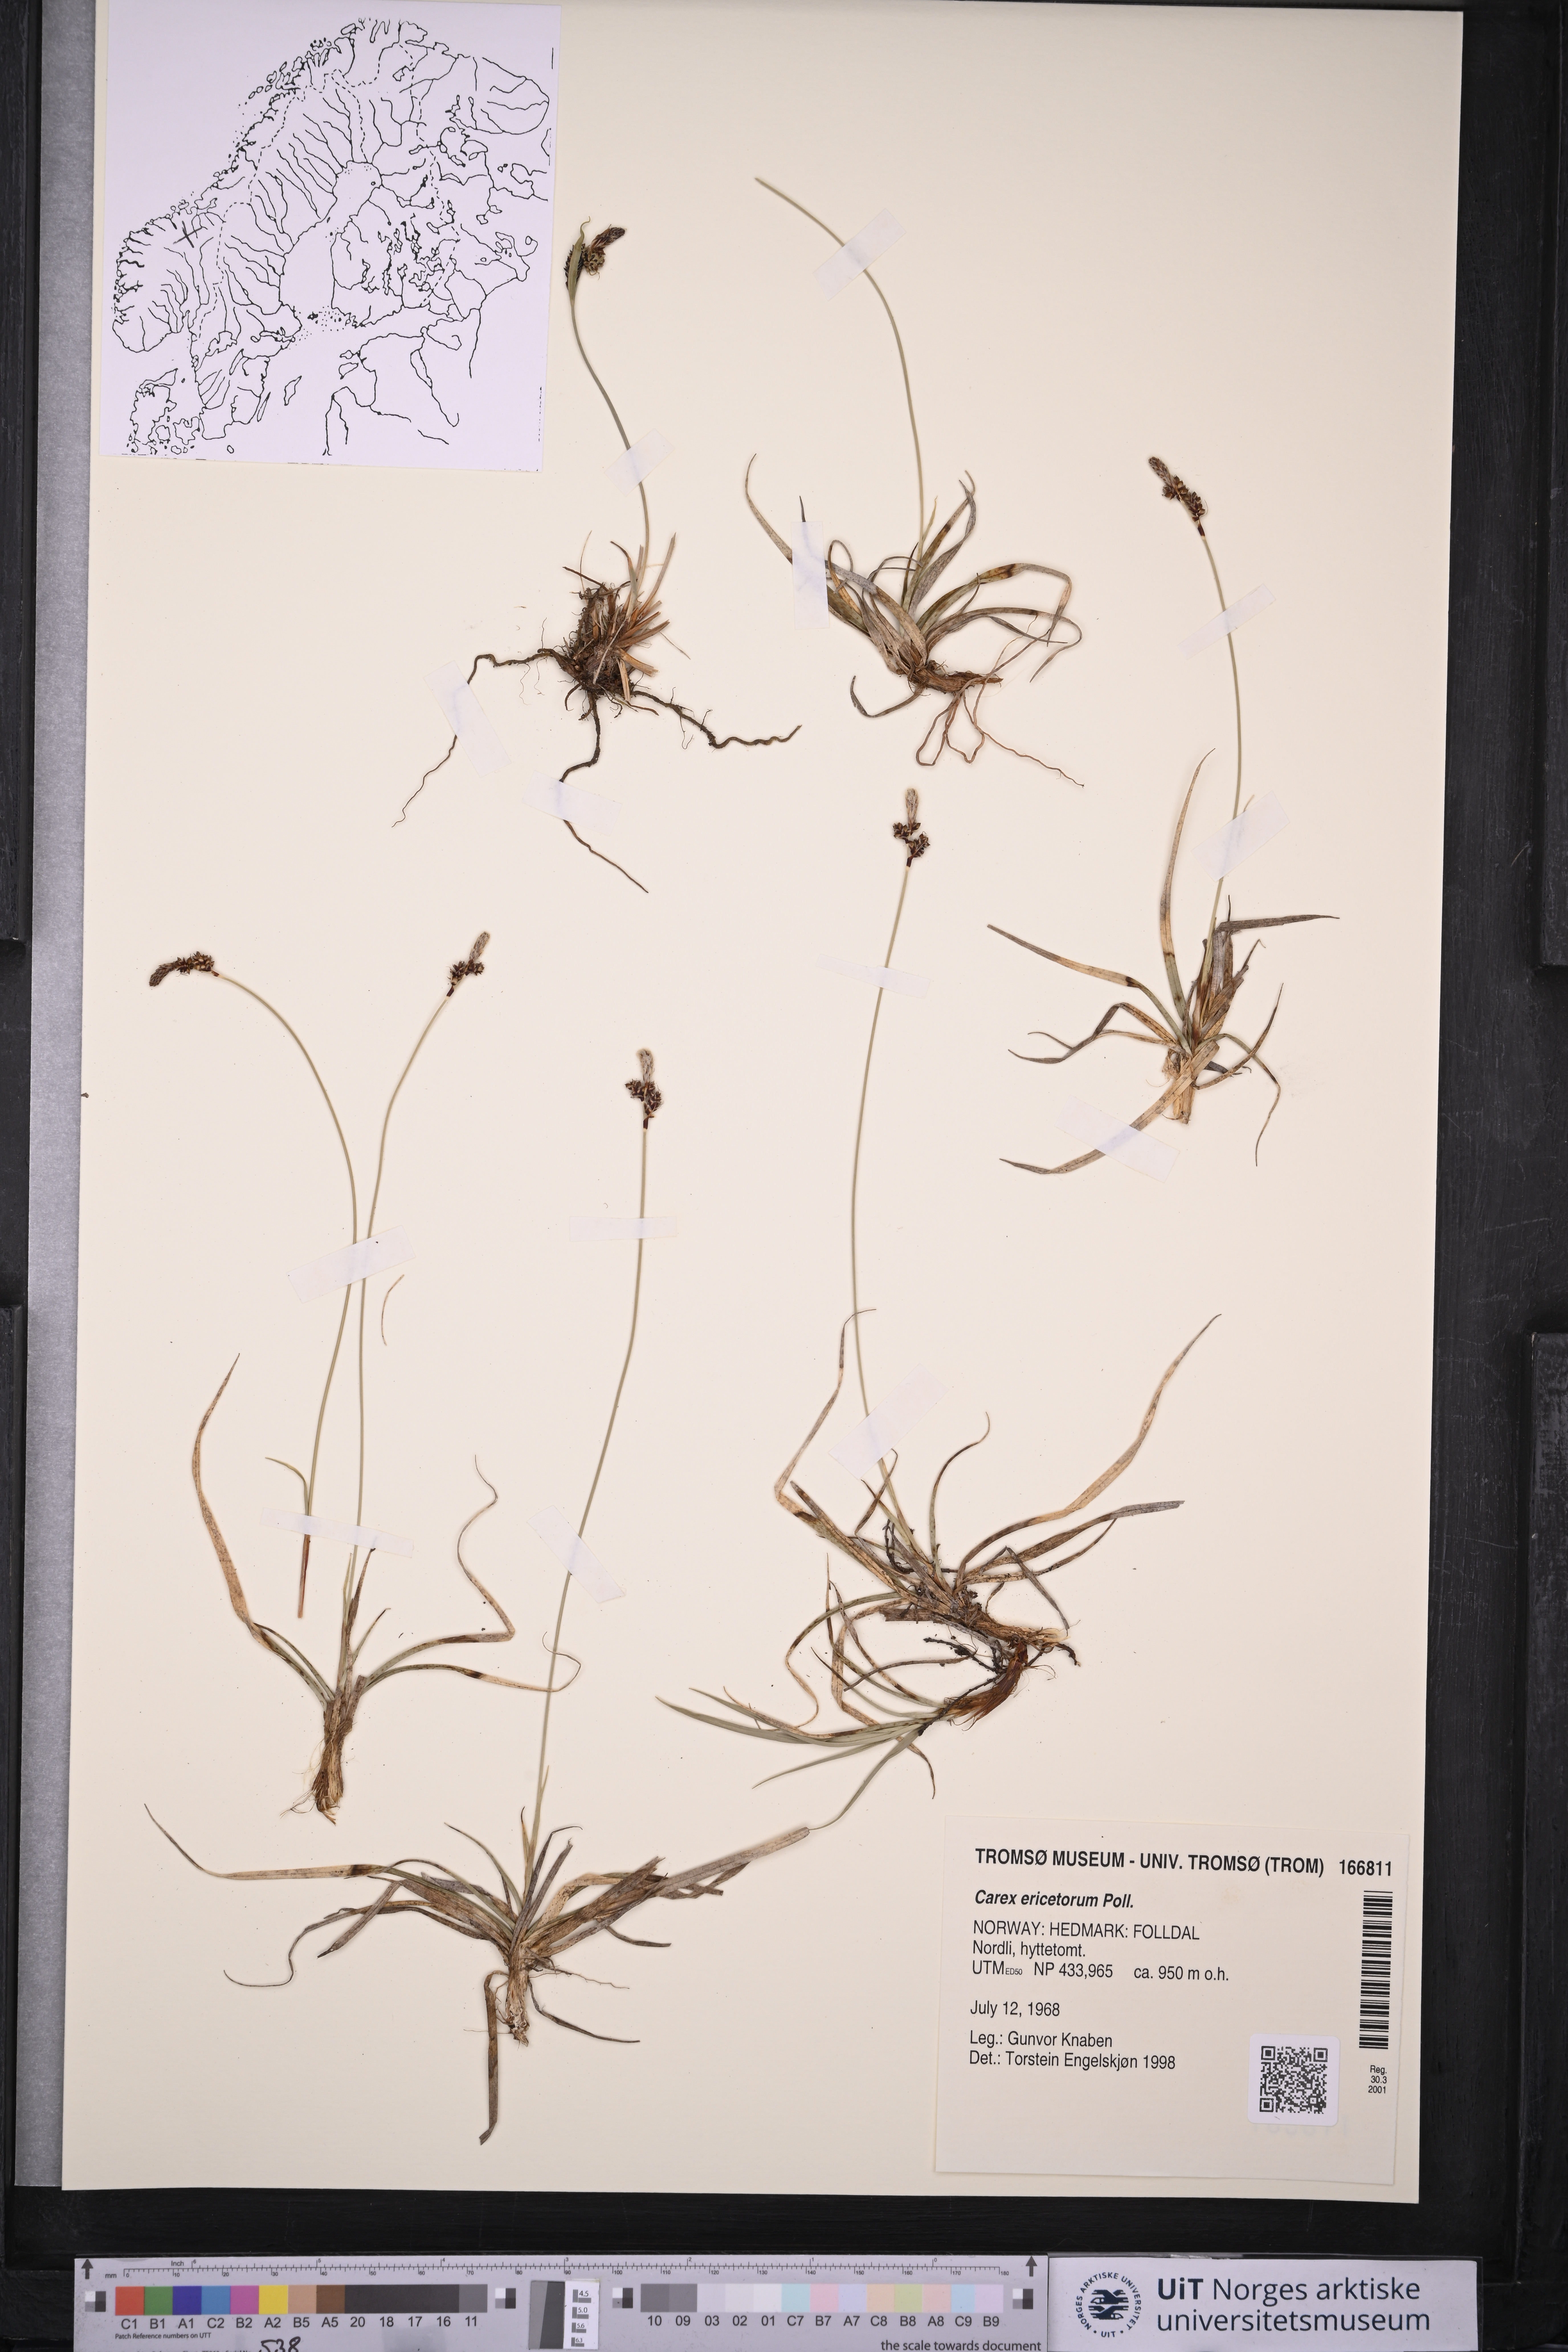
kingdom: Plantae
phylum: Tracheophyta
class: Liliopsida
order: Poales
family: Cyperaceae
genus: Carex
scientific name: Carex ericetorum
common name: Rare spring-sedge
